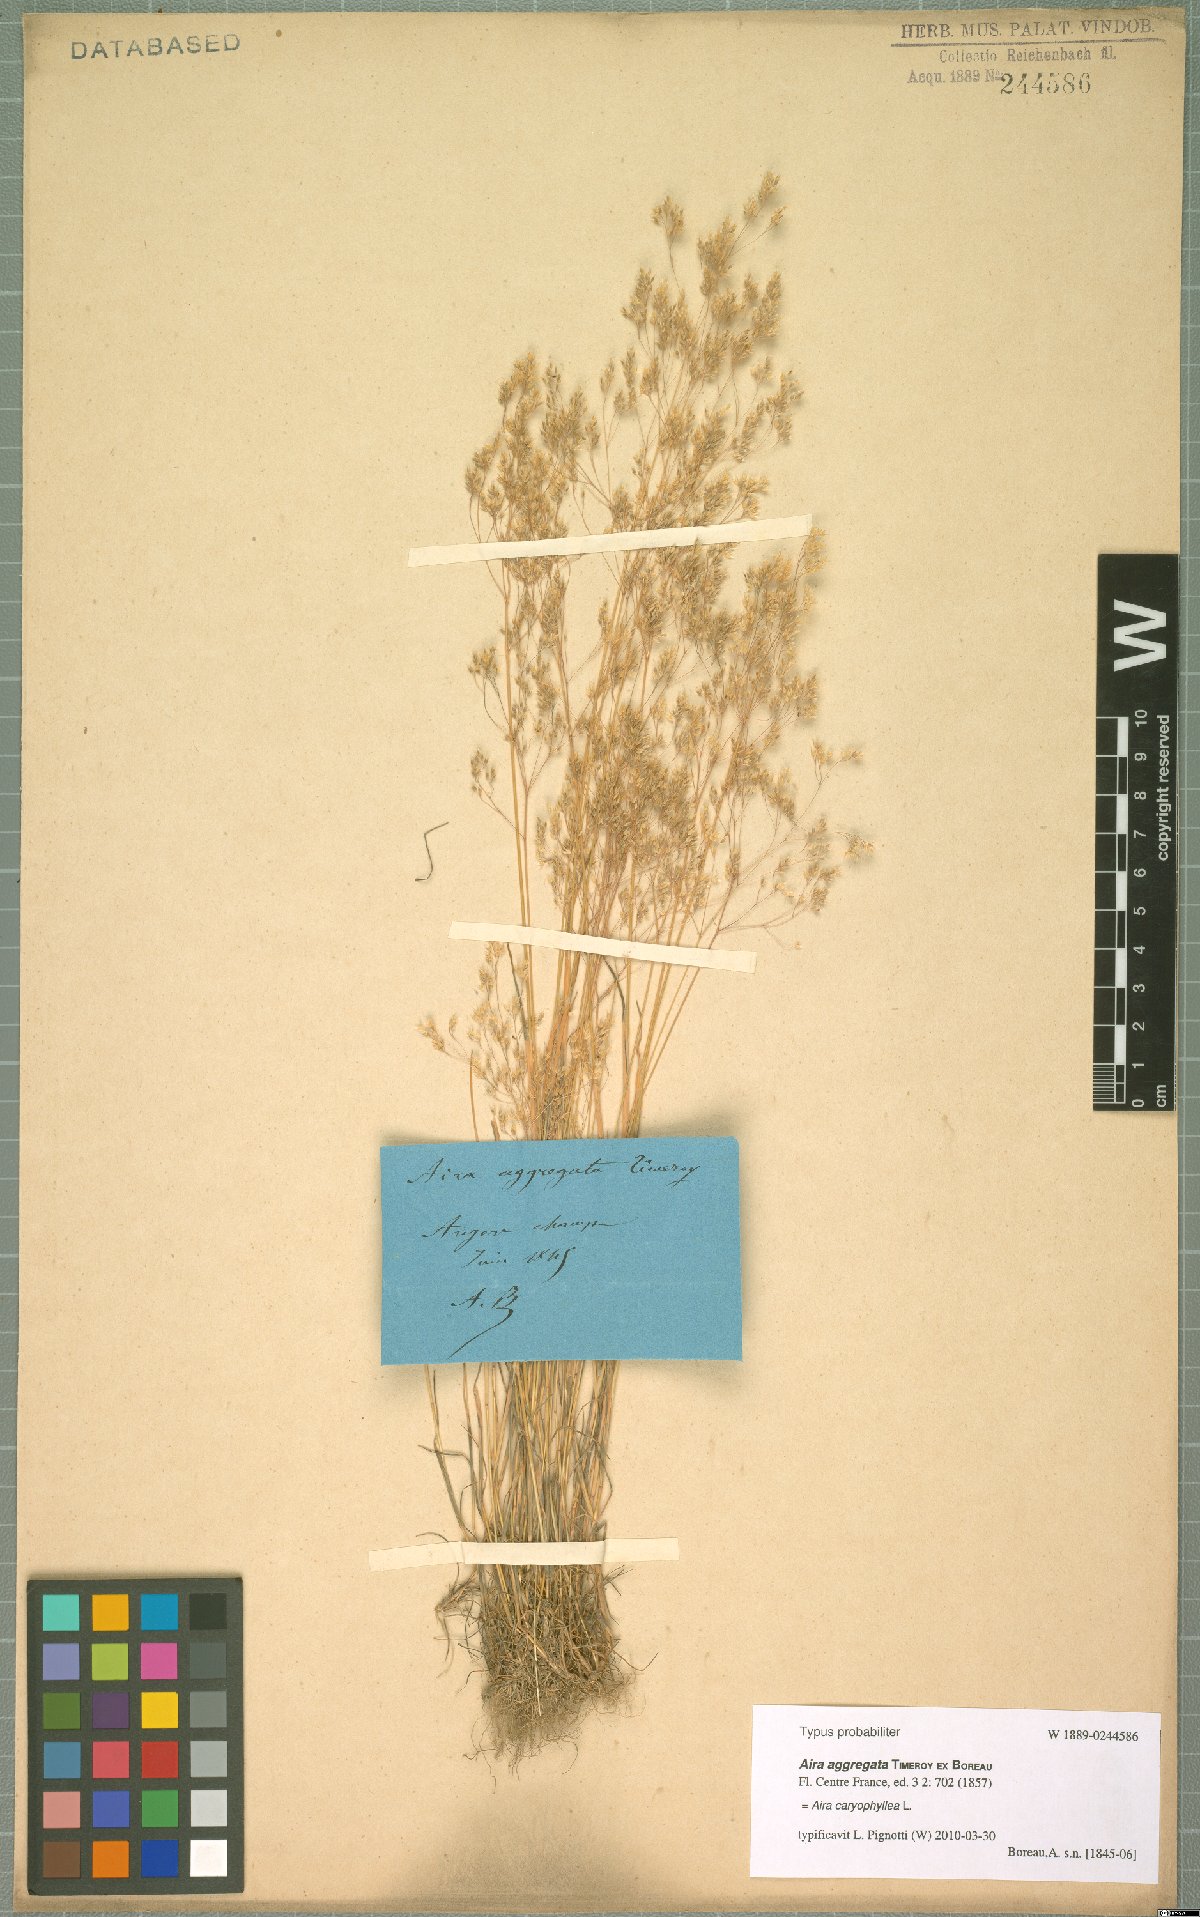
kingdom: Plantae
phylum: Tracheophyta
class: Liliopsida
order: Poales
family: Poaceae
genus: Aira
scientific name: Aira caryophyllea
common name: Silver hairgrass
